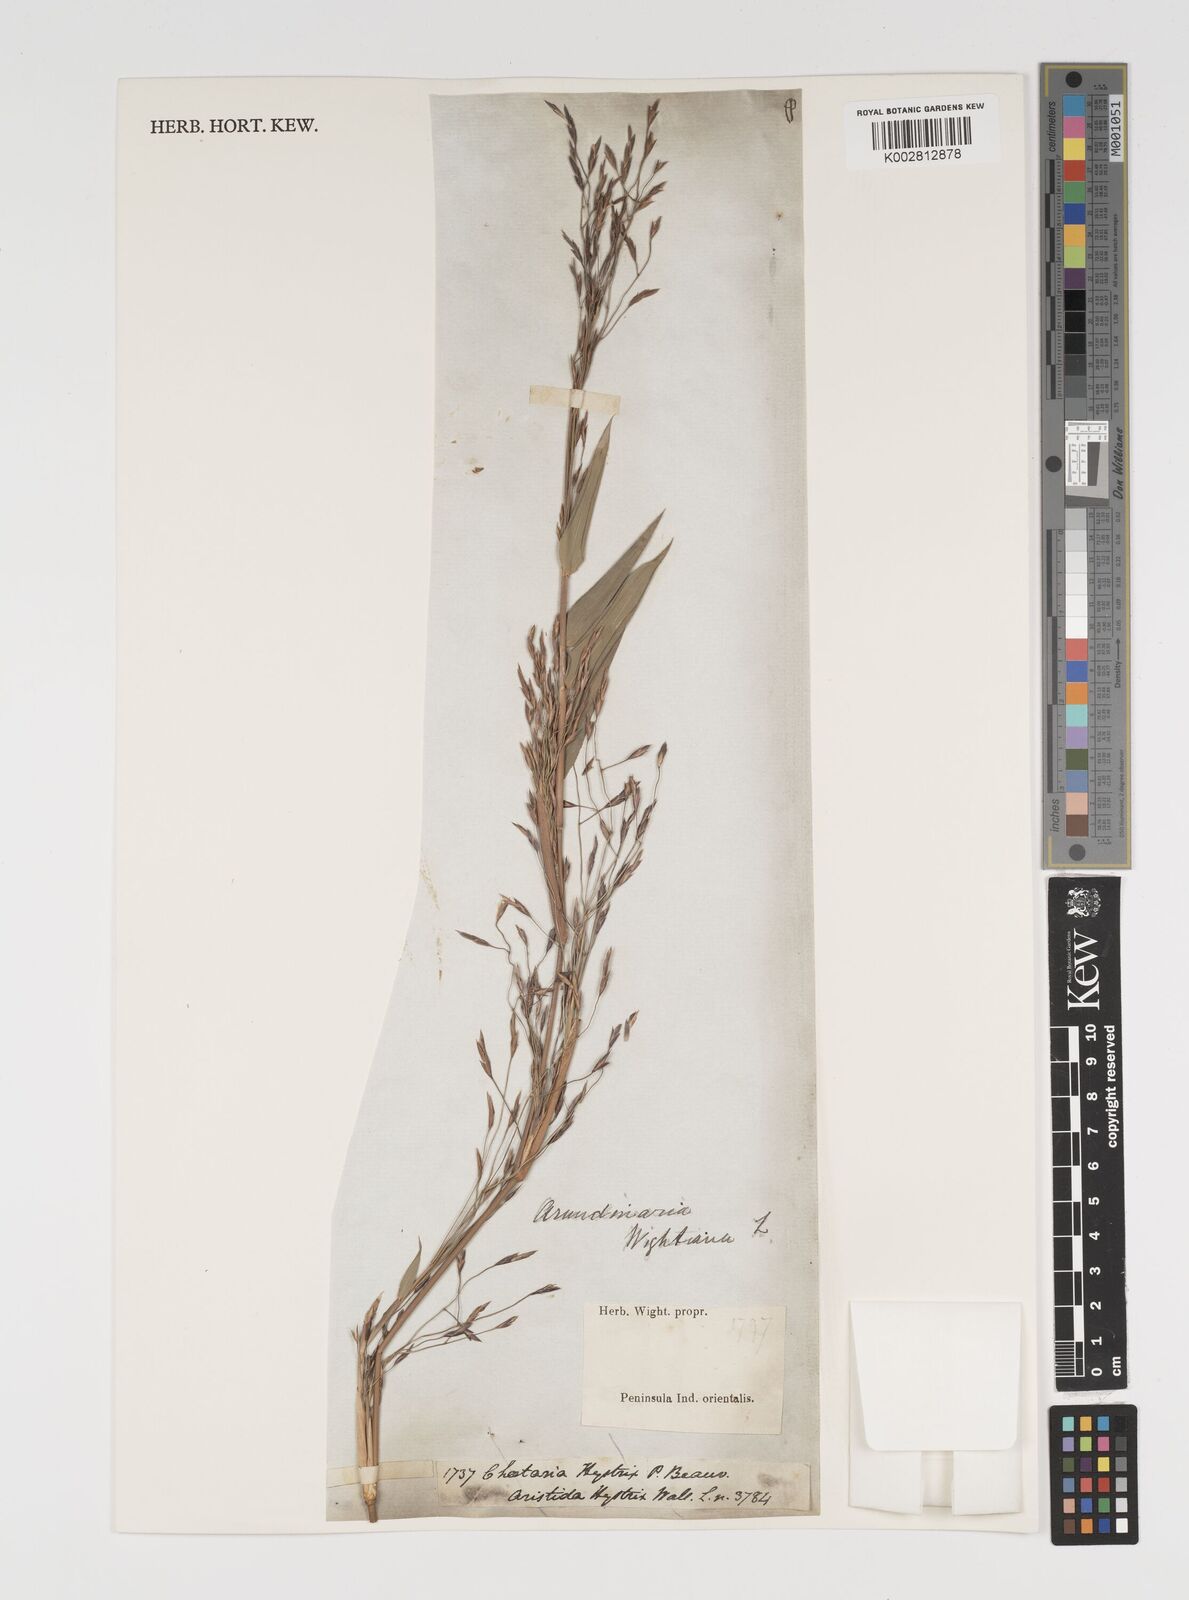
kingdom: Plantae
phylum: Tracheophyta
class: Liliopsida
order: Poales
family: Poaceae
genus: Kuruna
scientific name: Kuruna wightiana
